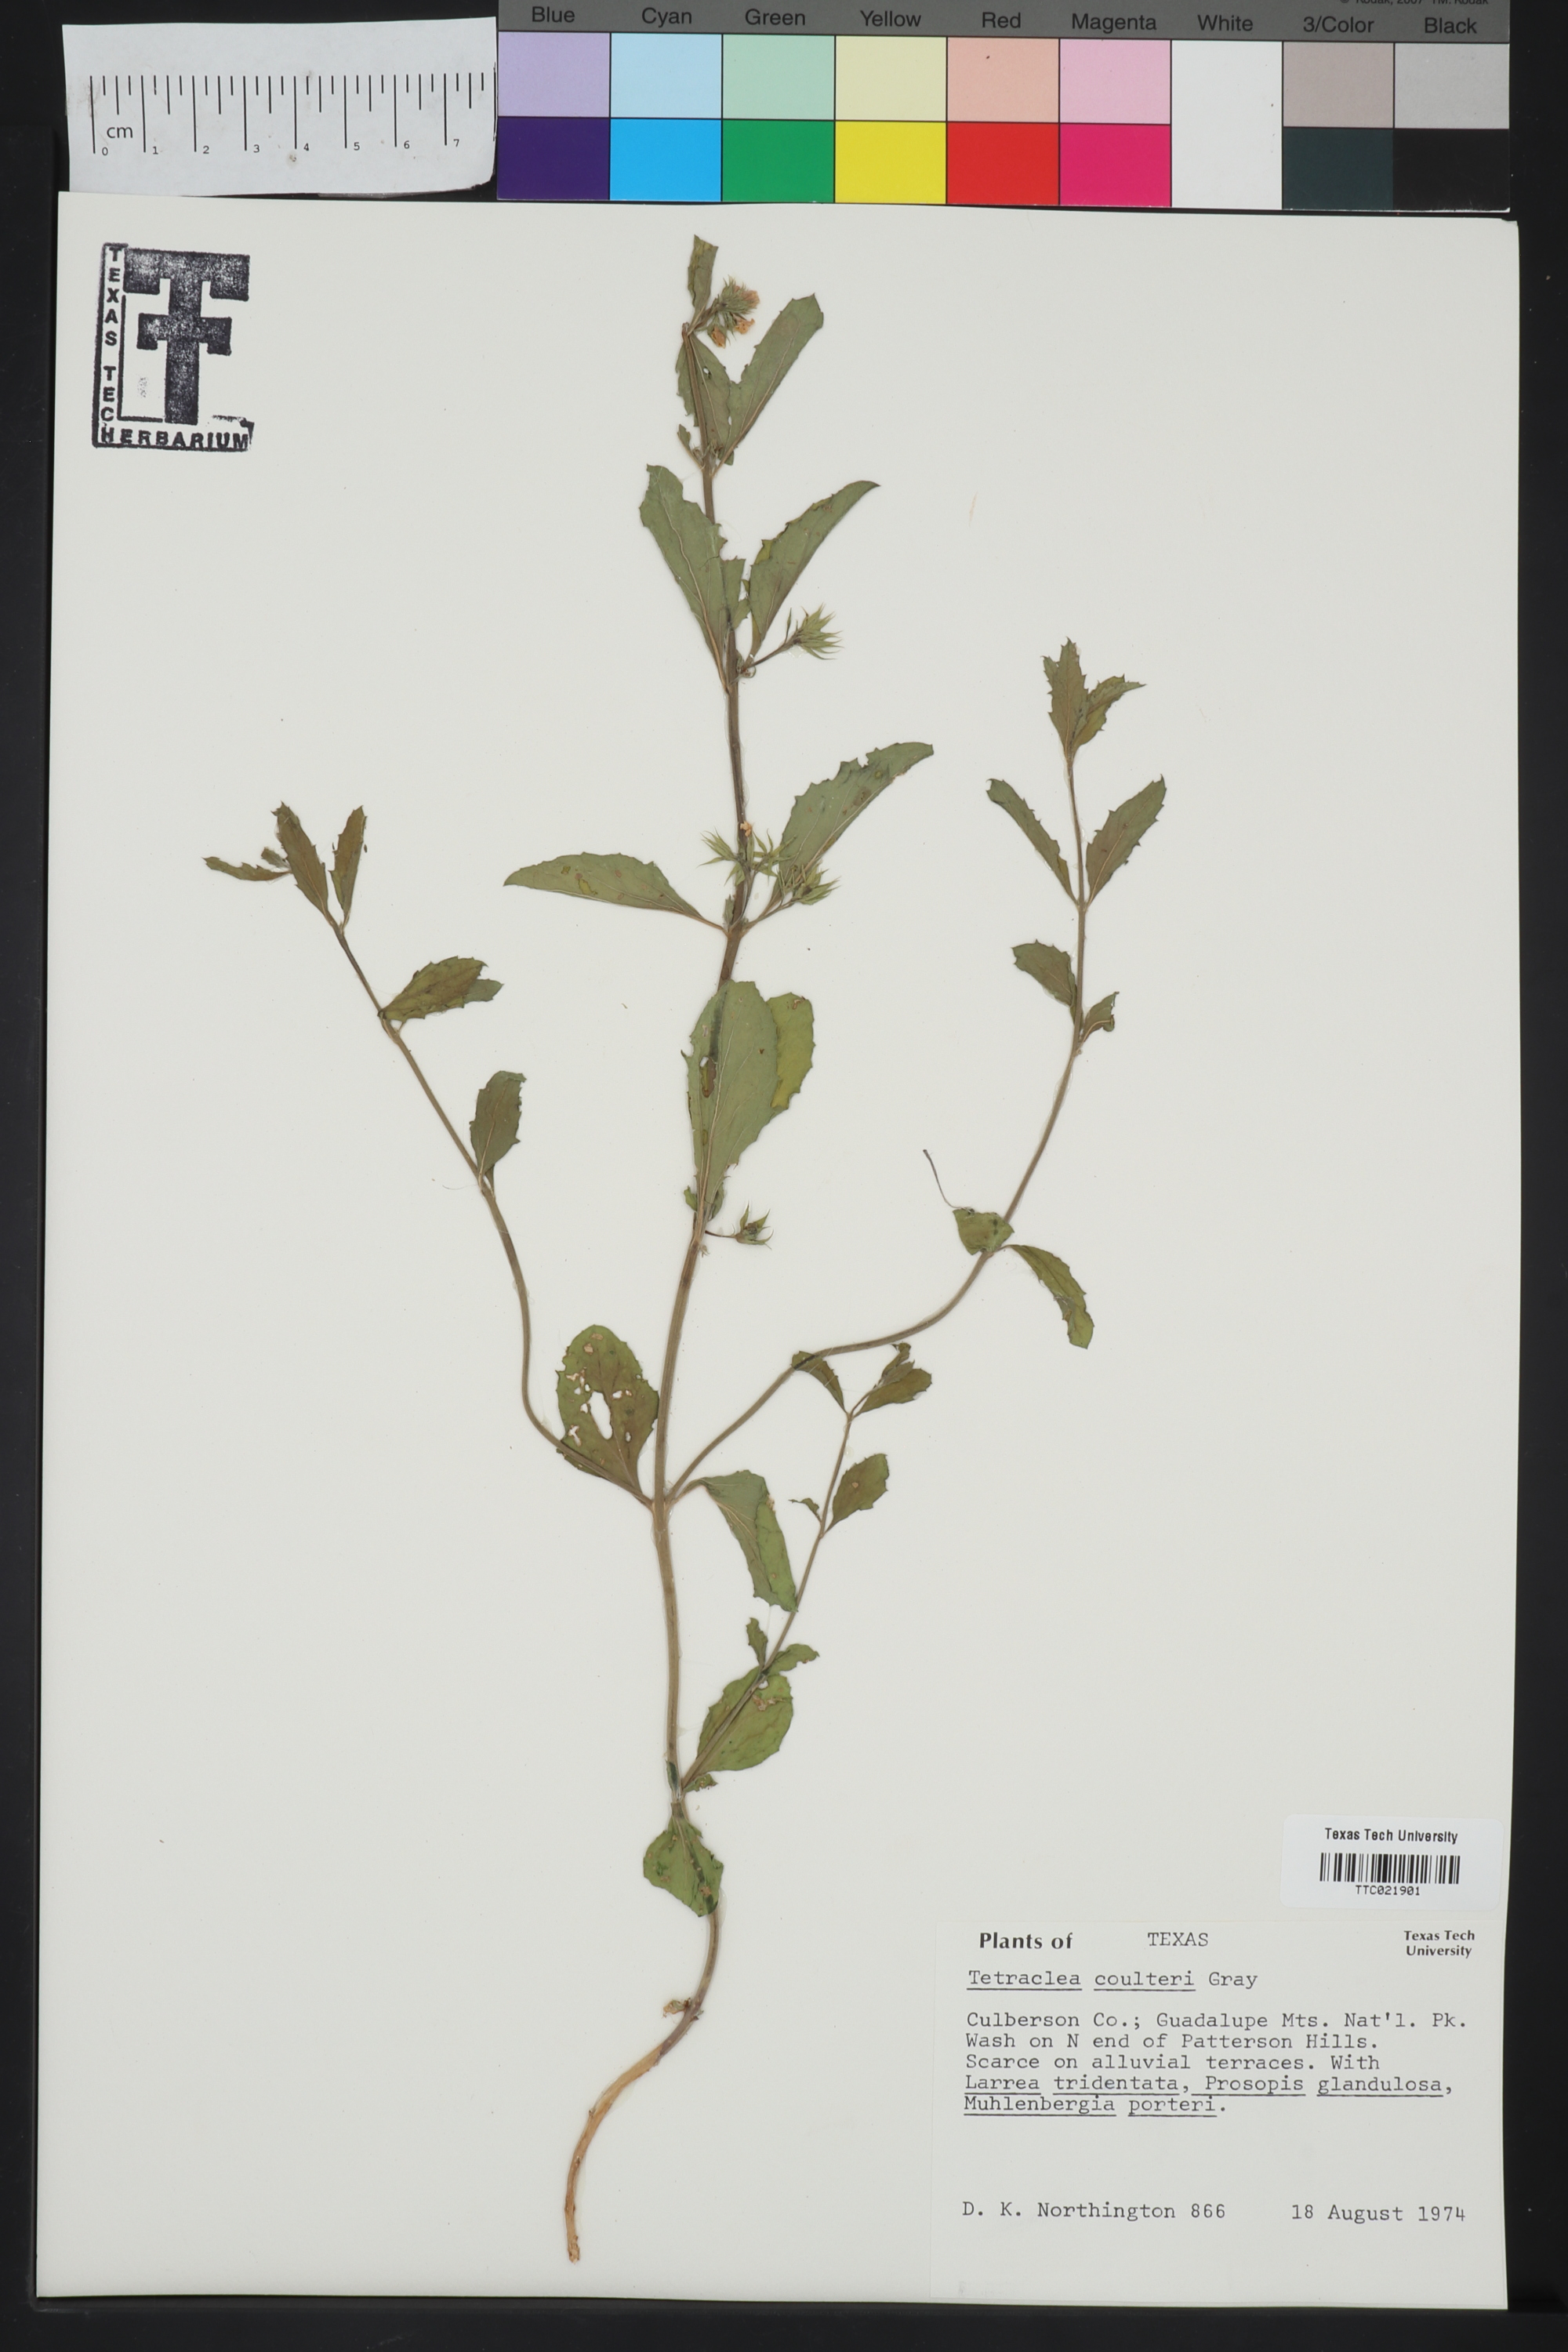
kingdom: Plantae
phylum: Tracheophyta
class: Magnoliopsida
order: Lamiales
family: Lamiaceae
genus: Tetraclea
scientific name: Tetraclea coulteri
